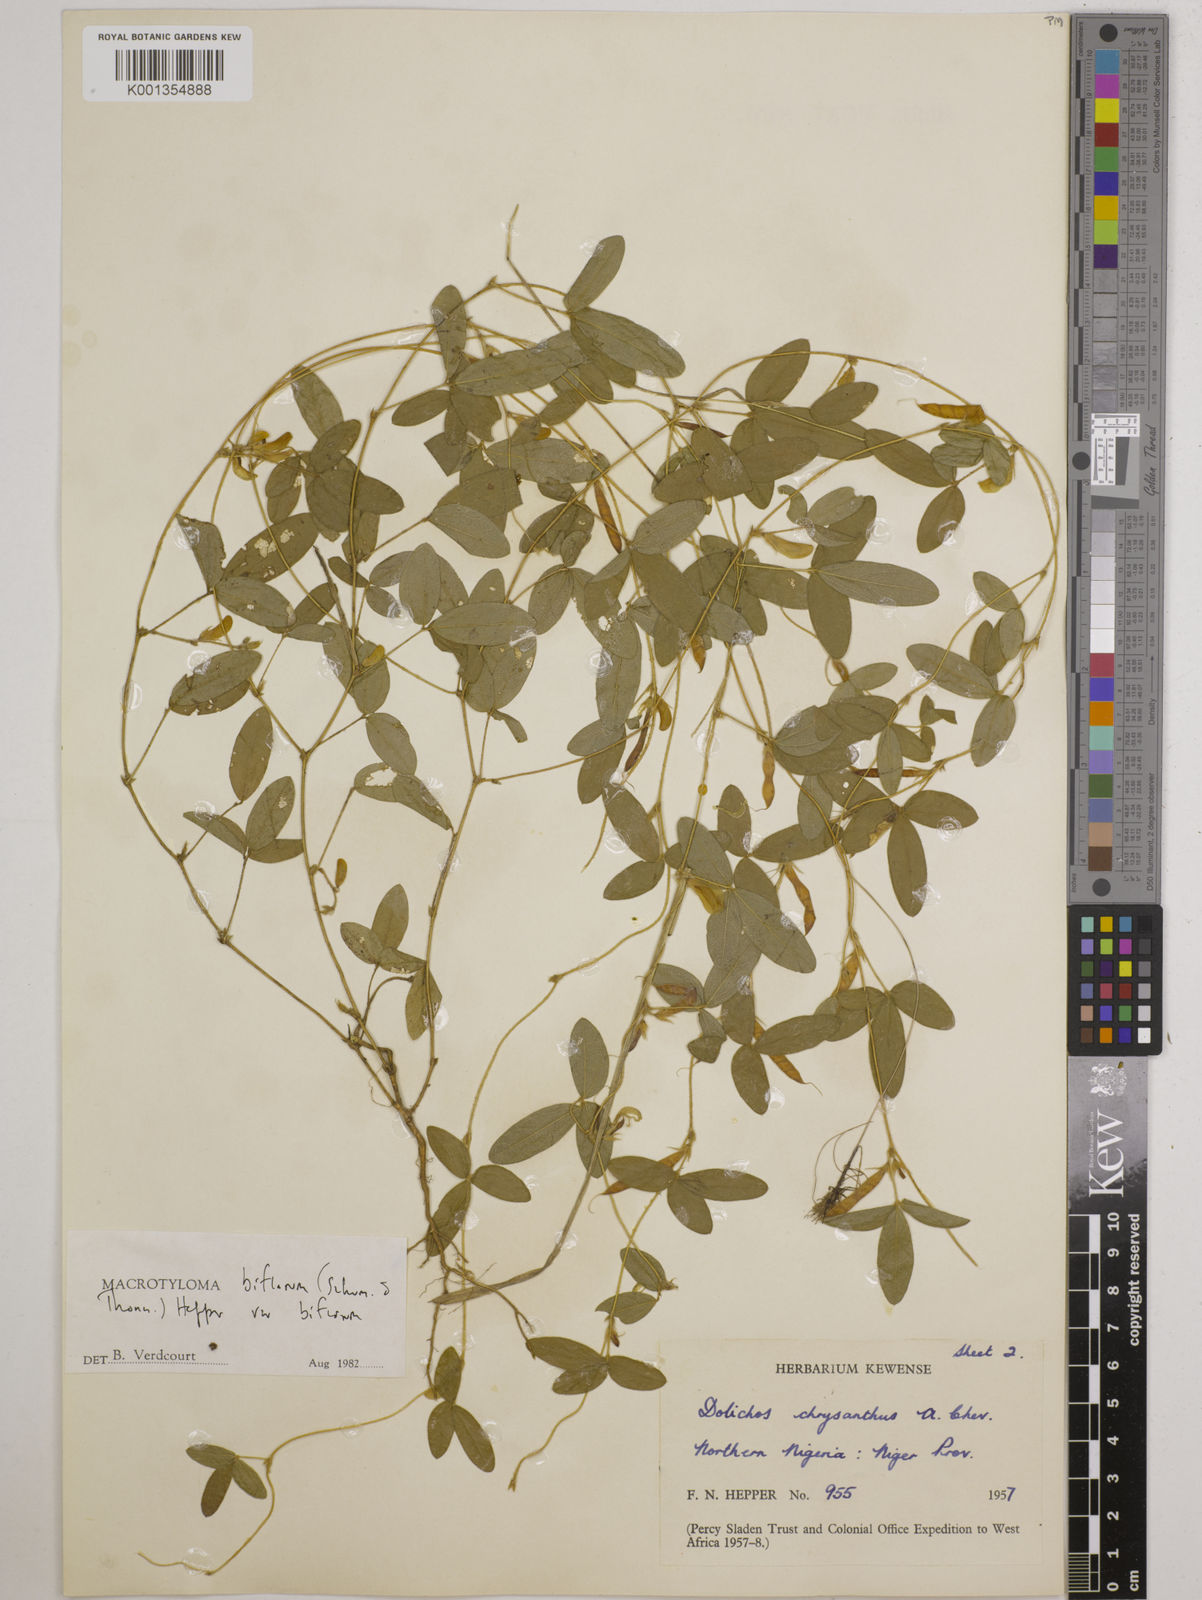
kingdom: Plantae
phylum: Tracheophyta
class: Magnoliopsida
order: Fabales
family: Fabaceae
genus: Macrotyloma
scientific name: Macrotyloma biflorum
